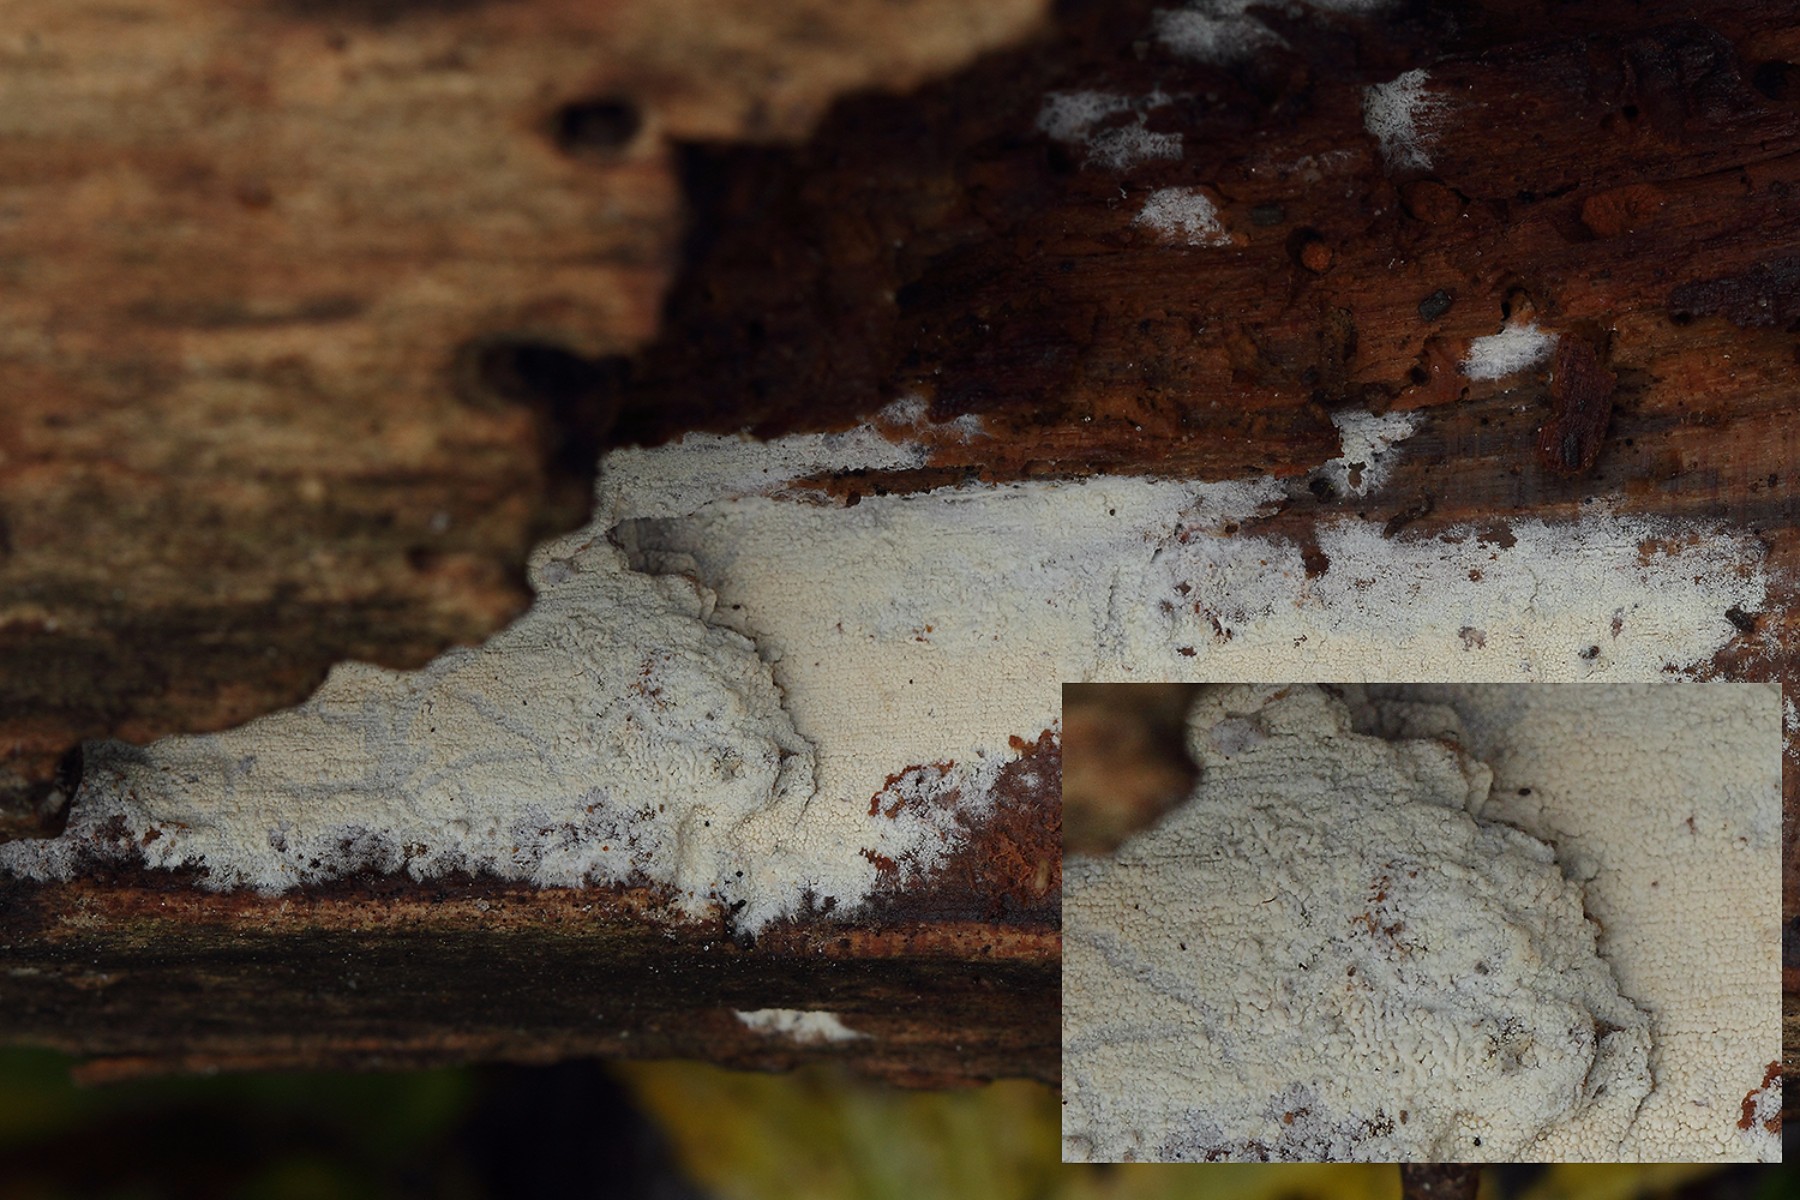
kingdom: Fungi
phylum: Basidiomycota
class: Agaricomycetes
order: Trechisporales
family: Sistotremataceae
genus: Trechispora
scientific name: Trechispora farinacea
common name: pigget vathinde
